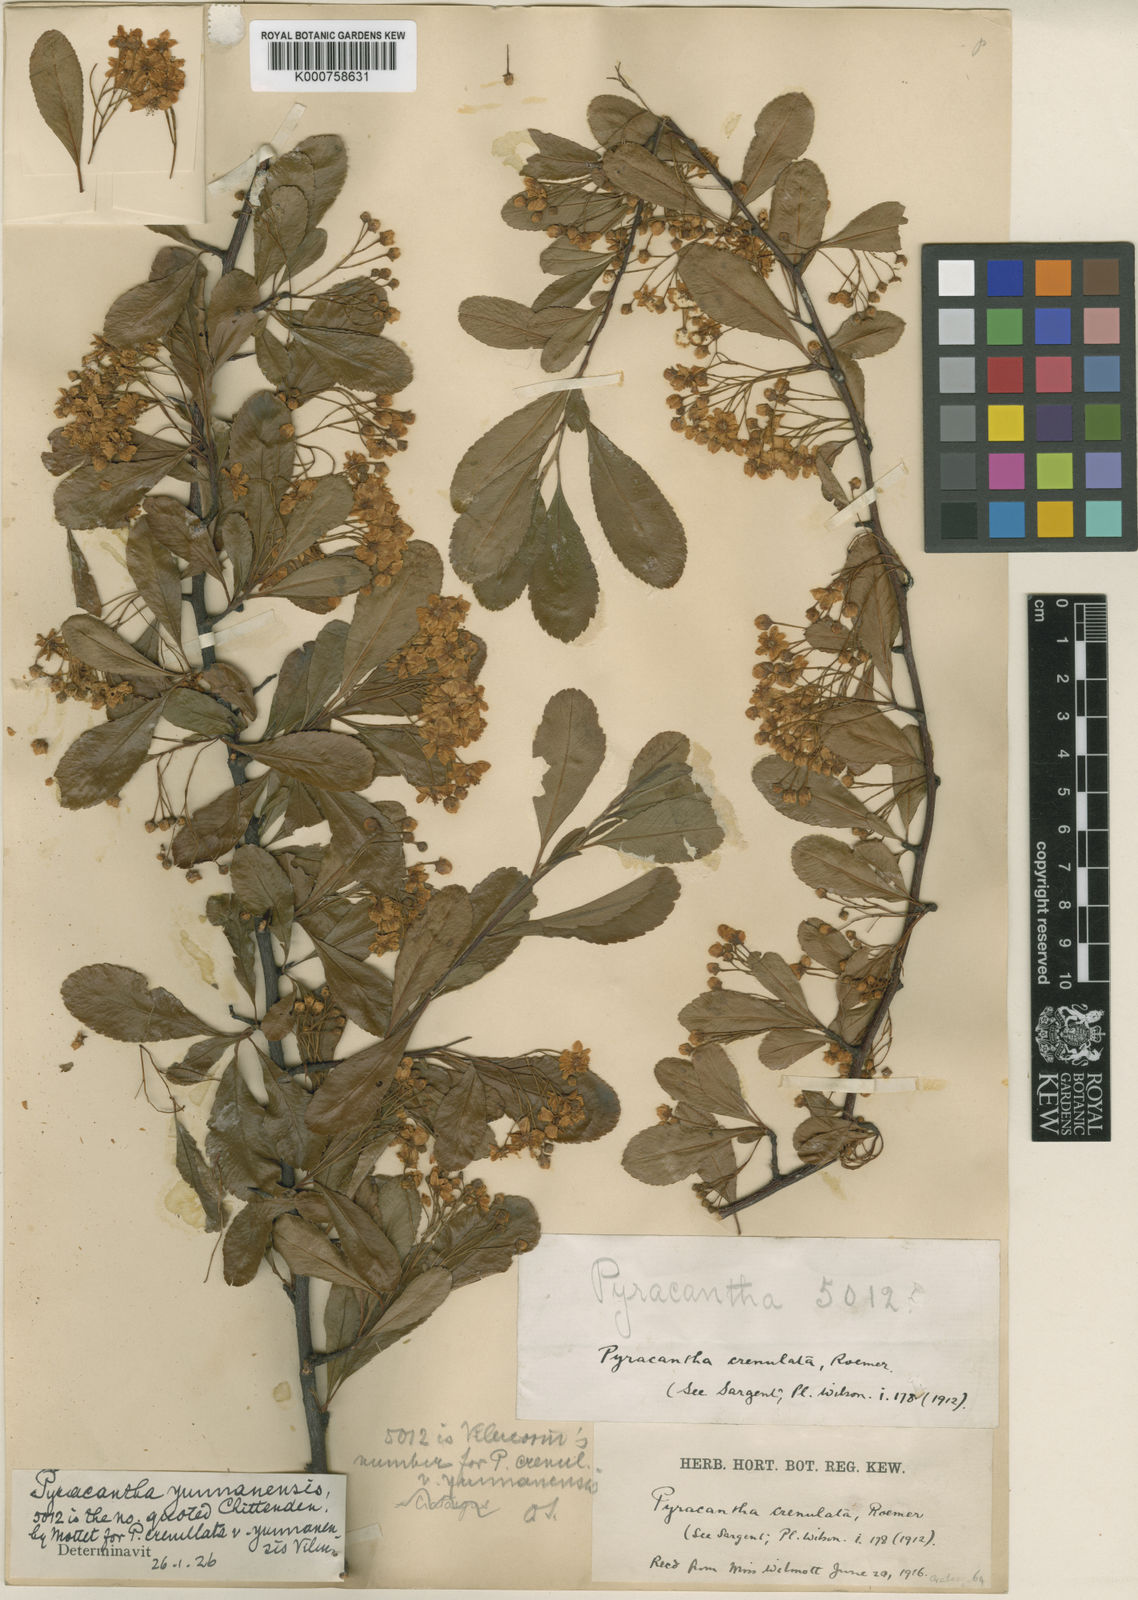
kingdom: Plantae
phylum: Tracheophyta
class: Magnoliopsida
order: Rosales
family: Rosaceae
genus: Pyracantha
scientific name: Pyracantha fortuneana
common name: Chinese firethorn
